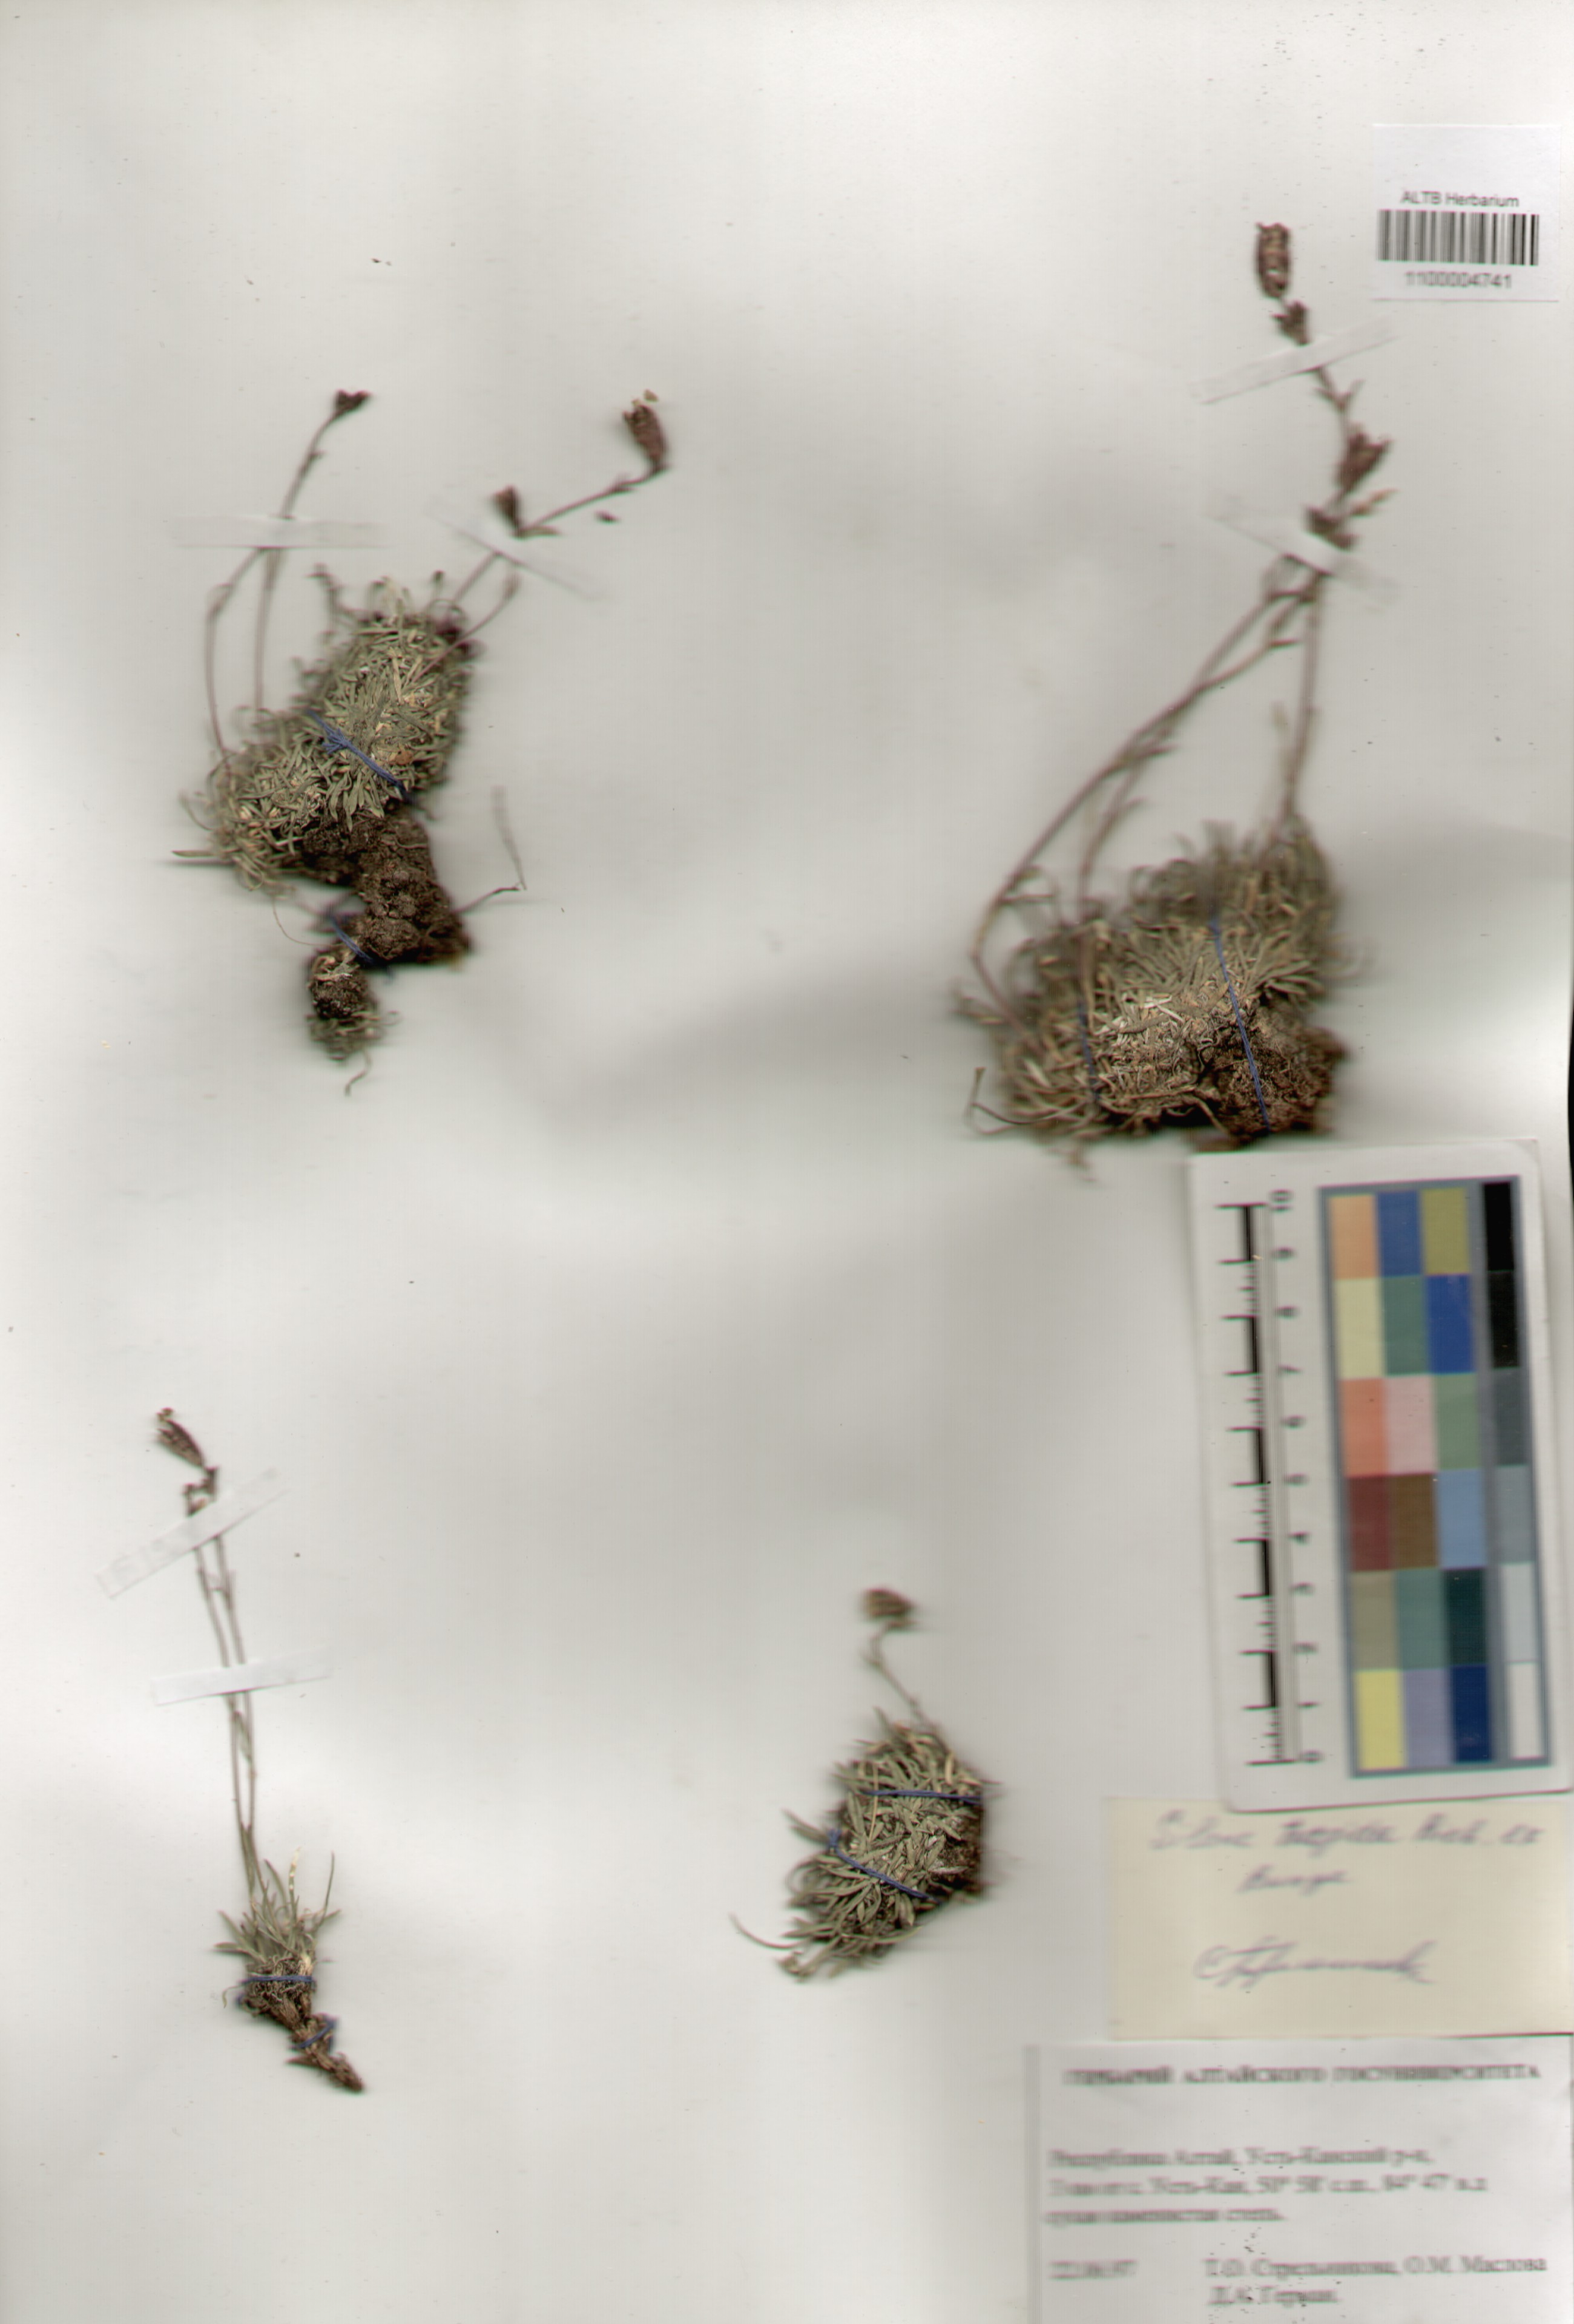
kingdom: Plantae
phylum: Tracheophyta
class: Magnoliopsida
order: Caryophyllales
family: Caryophyllaceae
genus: Silene
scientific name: Silene turgida
